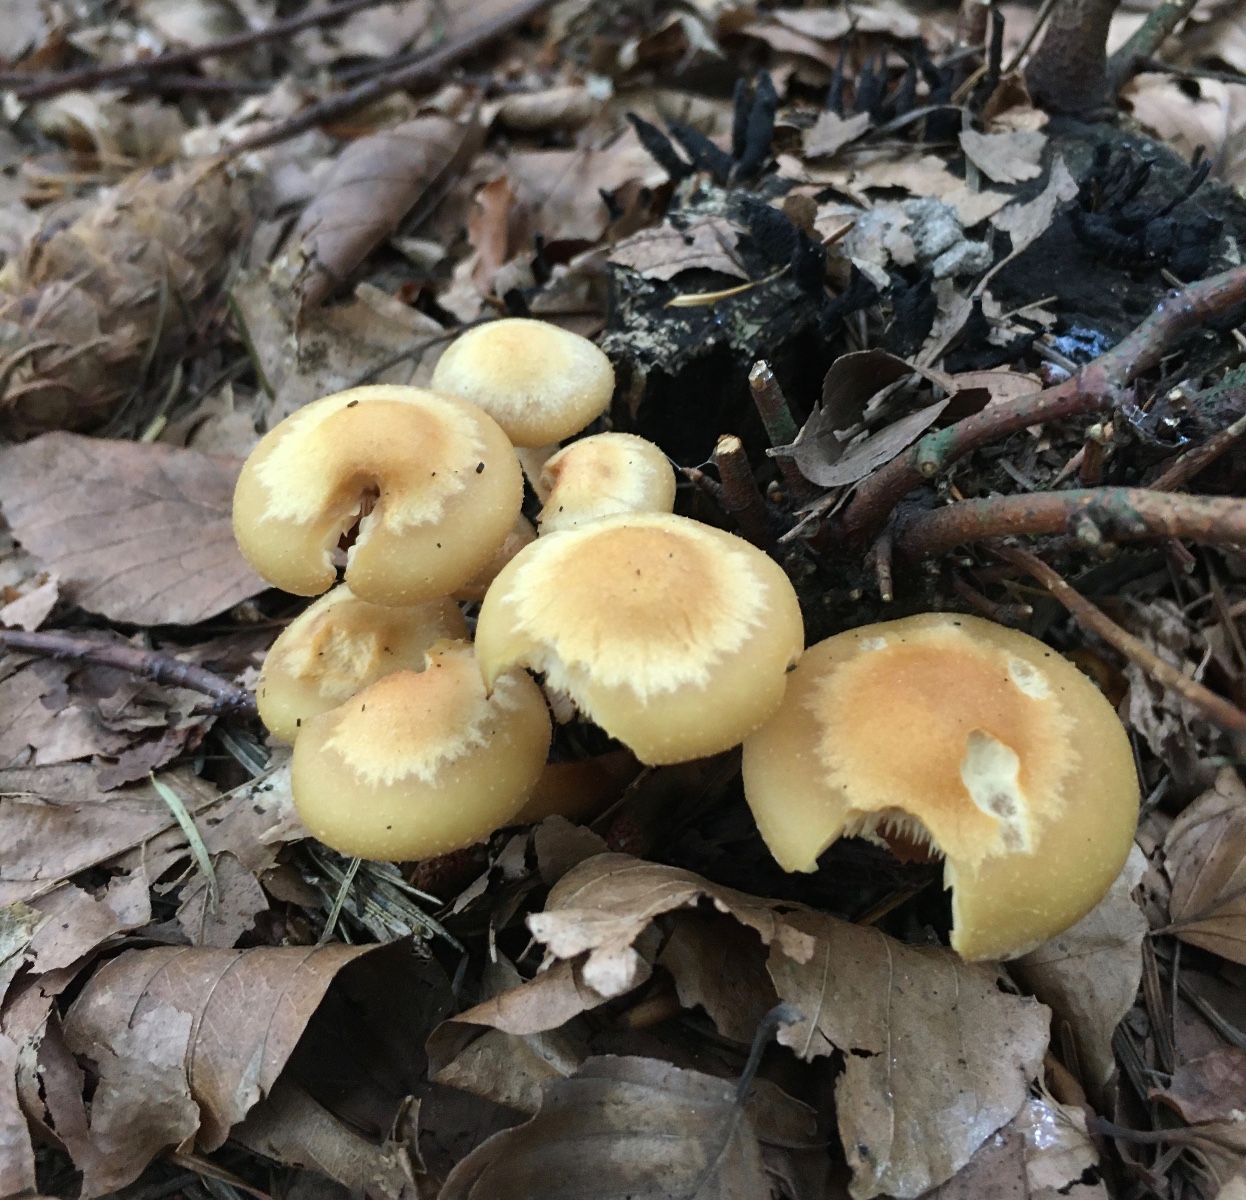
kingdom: Fungi
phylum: Basidiomycota
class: Agaricomycetes
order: Agaricales
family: Strophariaceae
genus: Kuehneromyces
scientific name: Kuehneromyces mutabilis
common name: foranderlig skælhat
